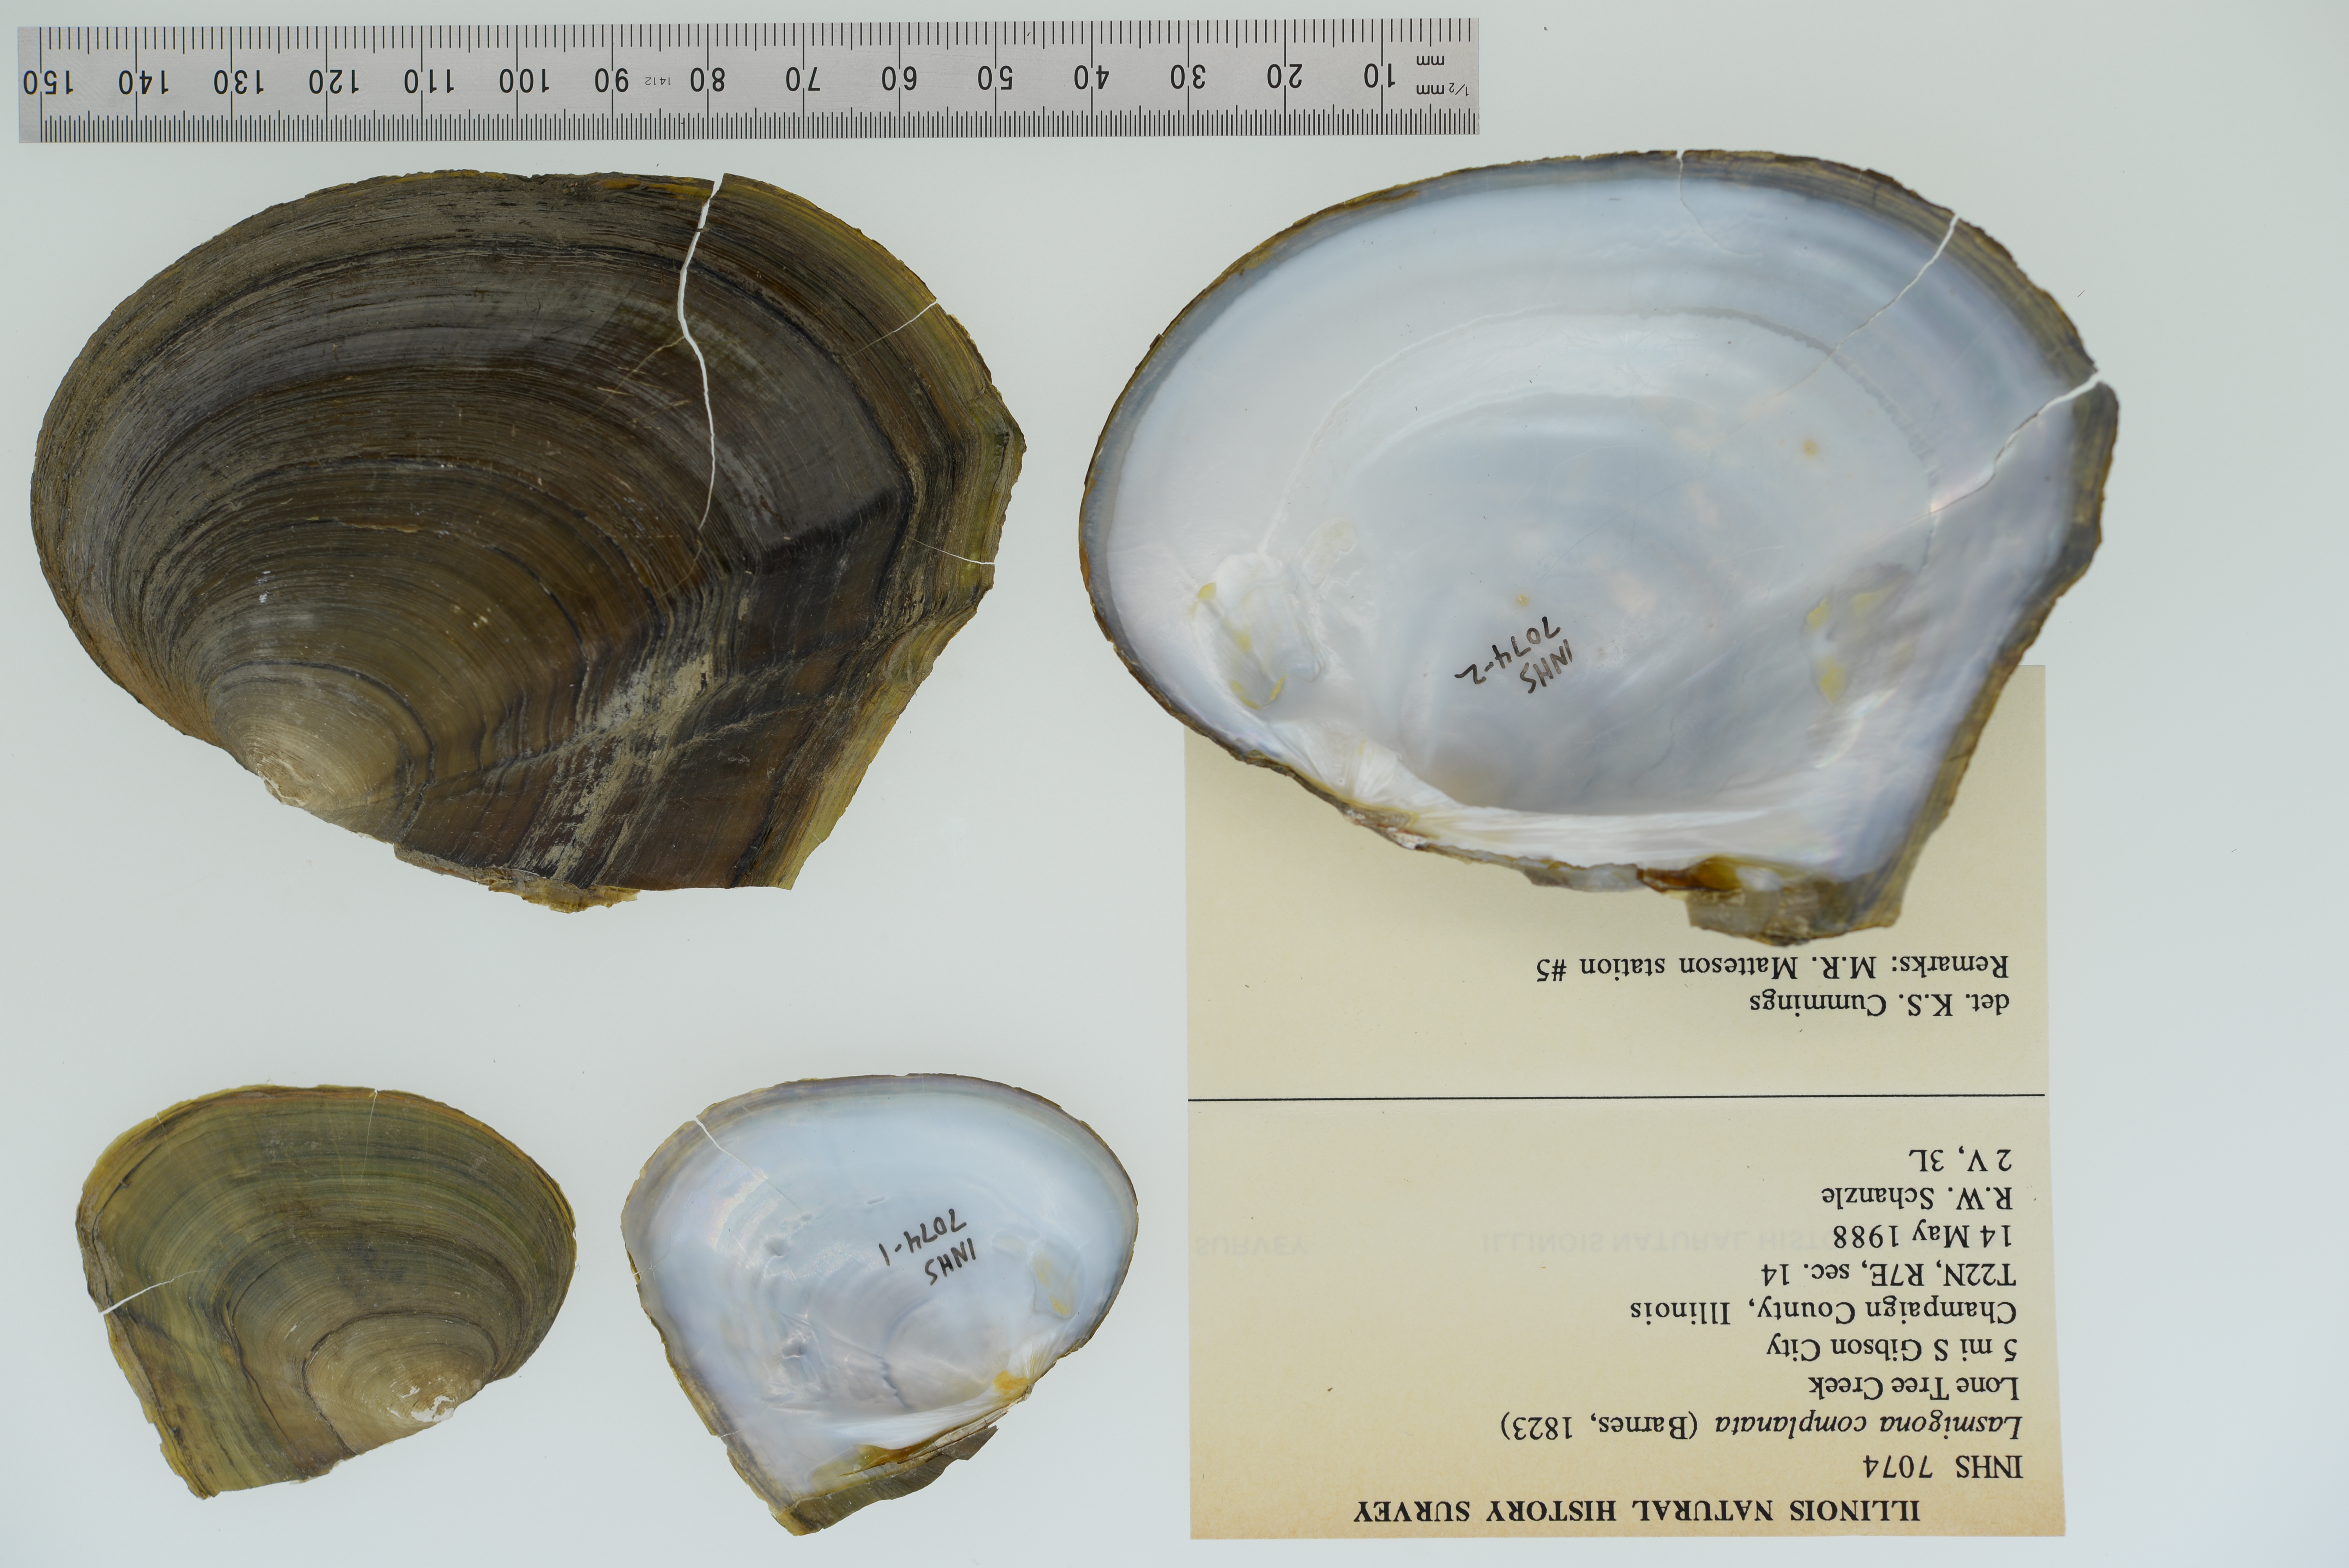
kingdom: Animalia
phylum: Mollusca
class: Bivalvia
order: Unionida
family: Unionidae
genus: Lasmigona
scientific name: Lasmigona complanata
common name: White heelsplitter
